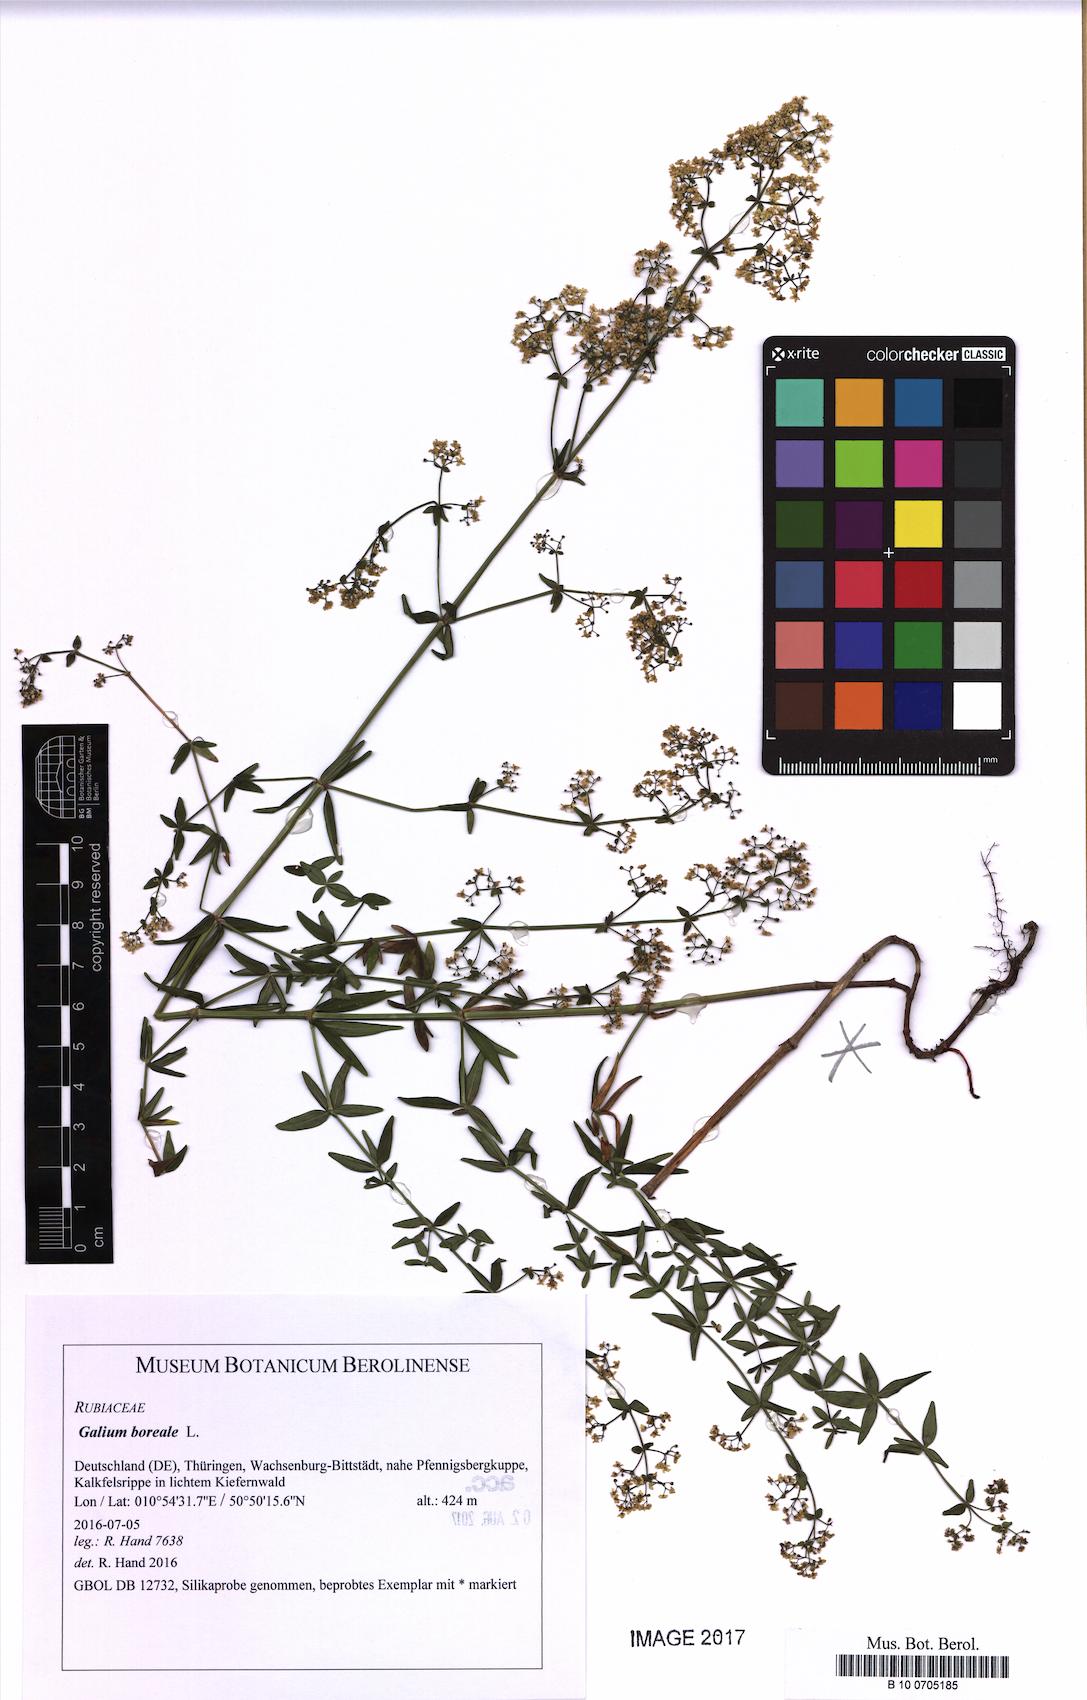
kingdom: Plantae
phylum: Tracheophyta
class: Magnoliopsida
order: Gentianales
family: Rubiaceae
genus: Galium
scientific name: Galium boreale
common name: Northern bedstraw
